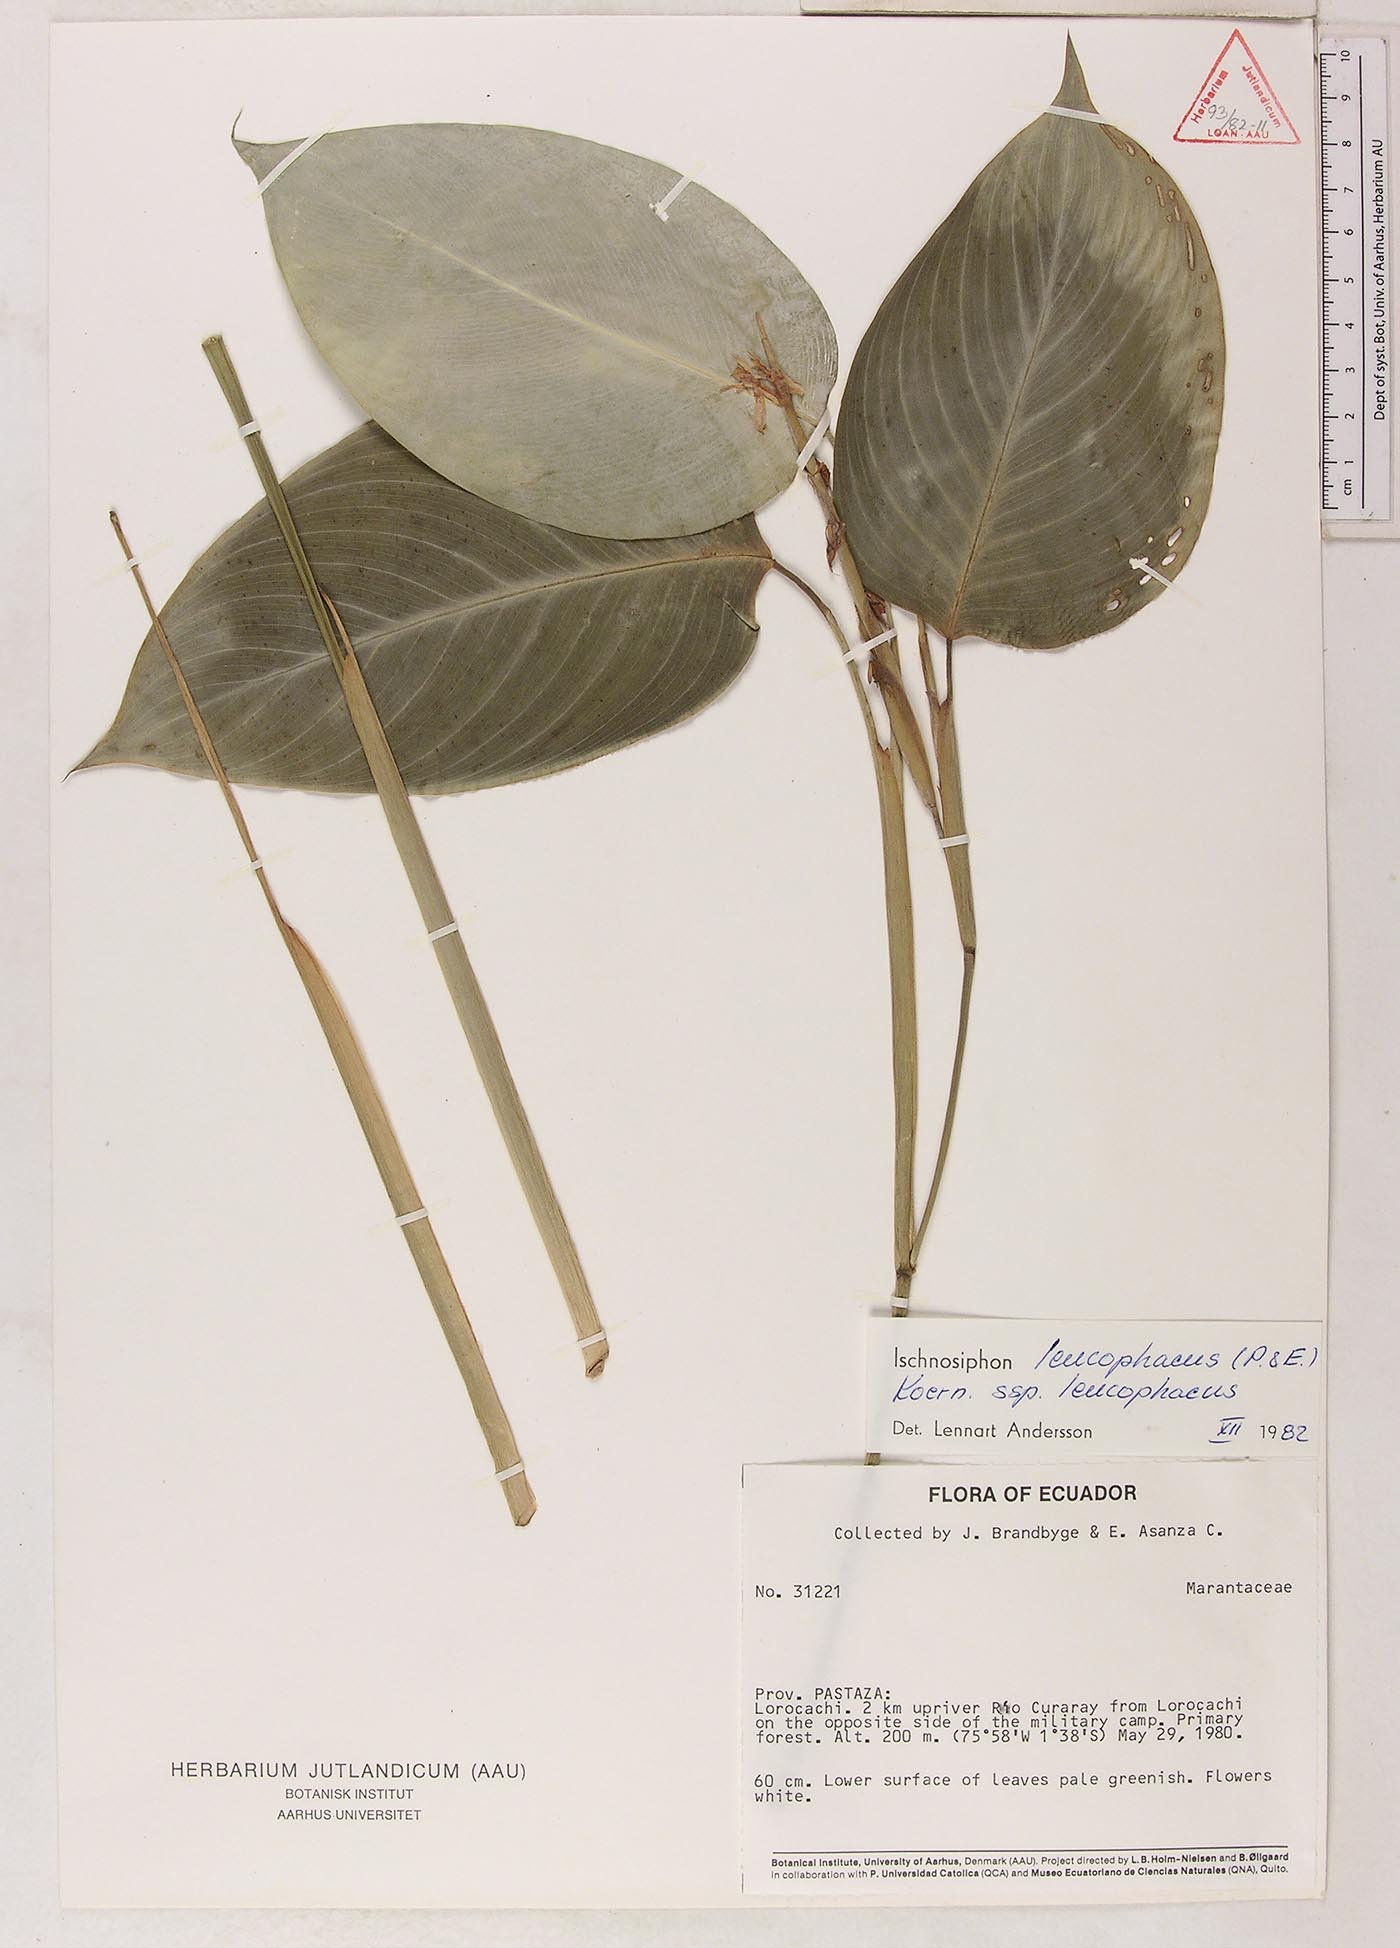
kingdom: Plantae
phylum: Tracheophyta
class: Liliopsida
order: Zingiberales
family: Marantaceae
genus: Ischnosiphon
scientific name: Ischnosiphon leucophaeus
